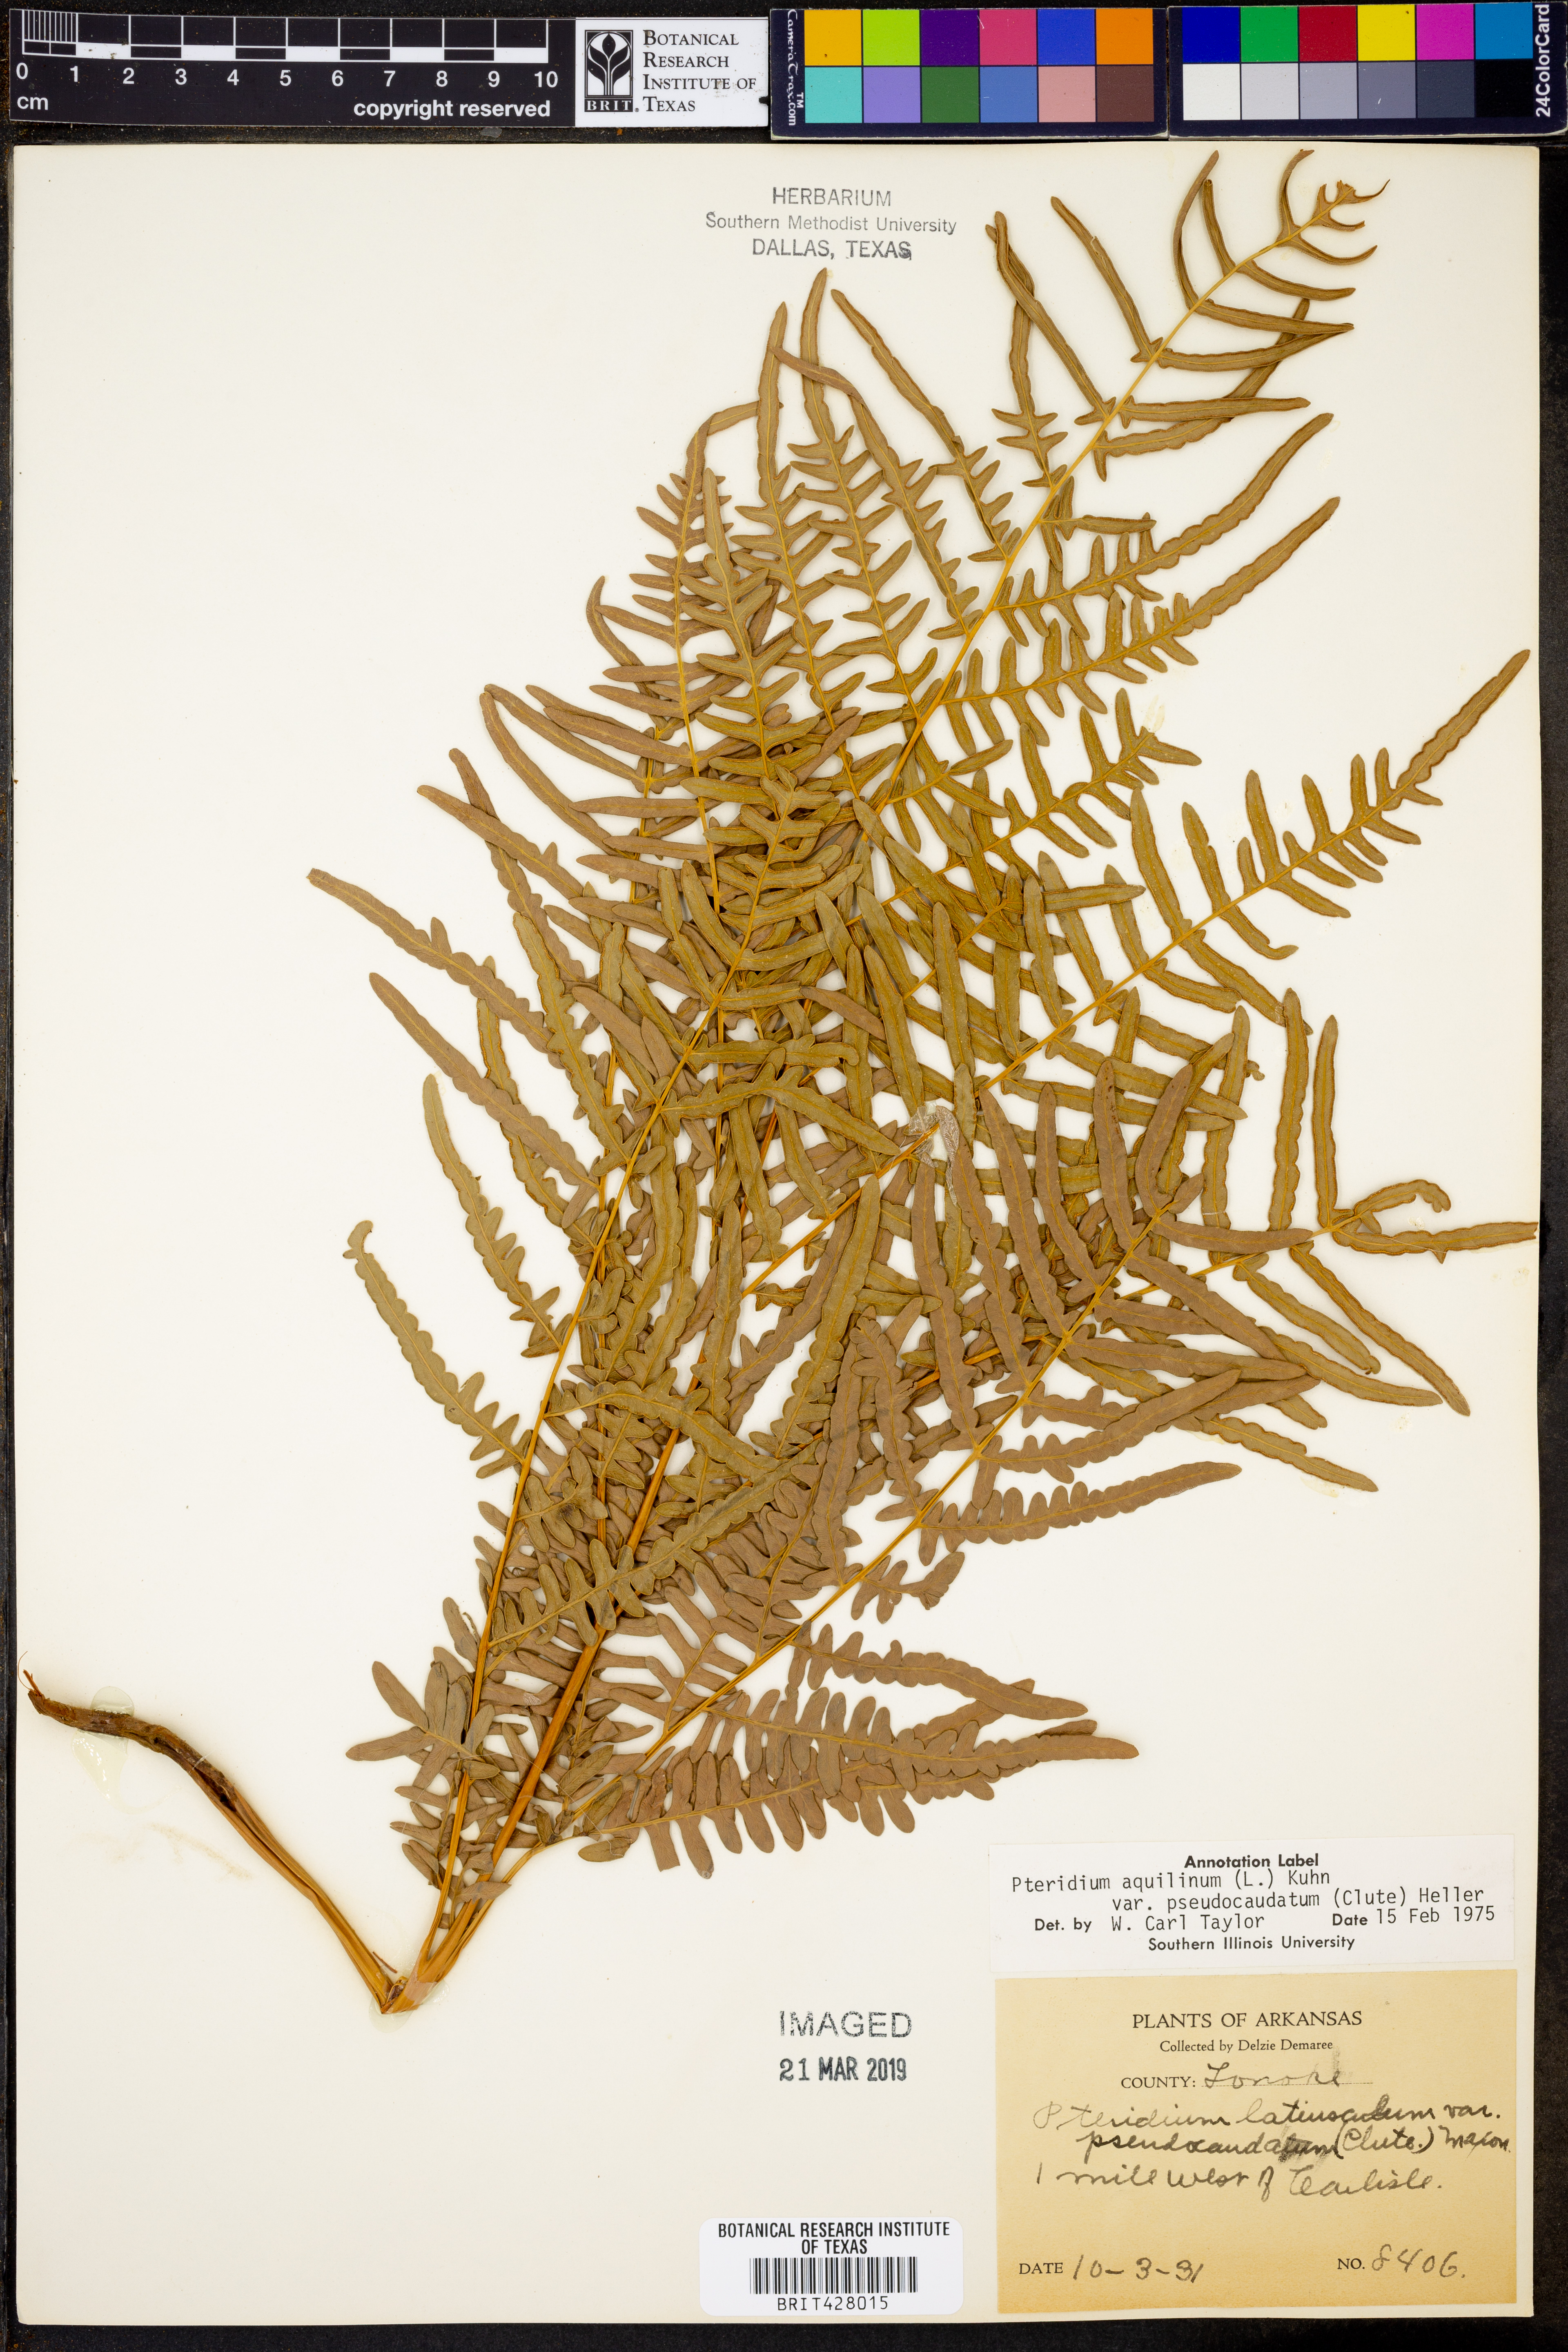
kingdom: Plantae
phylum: Tracheophyta
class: Polypodiopsida
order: Polypodiales
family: Dennstaedtiaceae
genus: Pteridium
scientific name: Pteridium aquilinum
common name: Bracken
